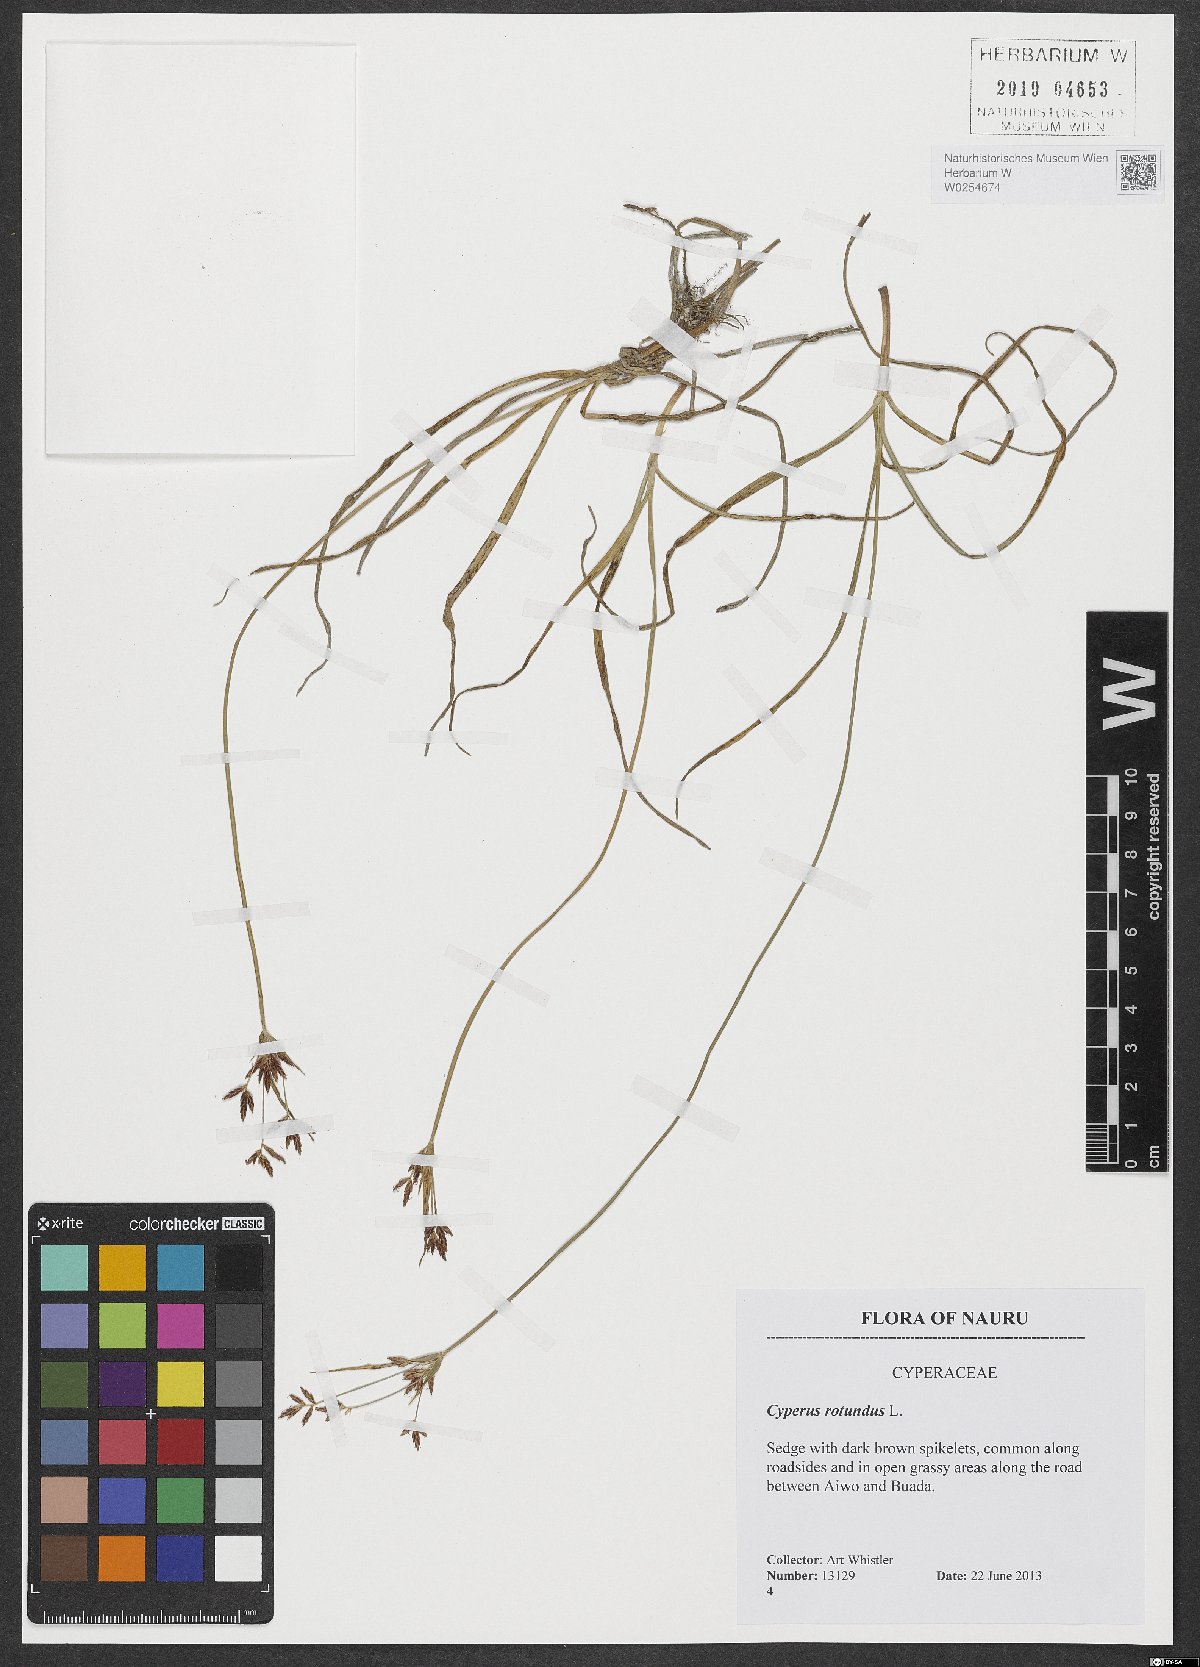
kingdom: Plantae
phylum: Tracheophyta
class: Liliopsida
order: Poales
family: Cyperaceae
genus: Cyperus
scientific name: Cyperus rotundus
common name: Nutgrass
